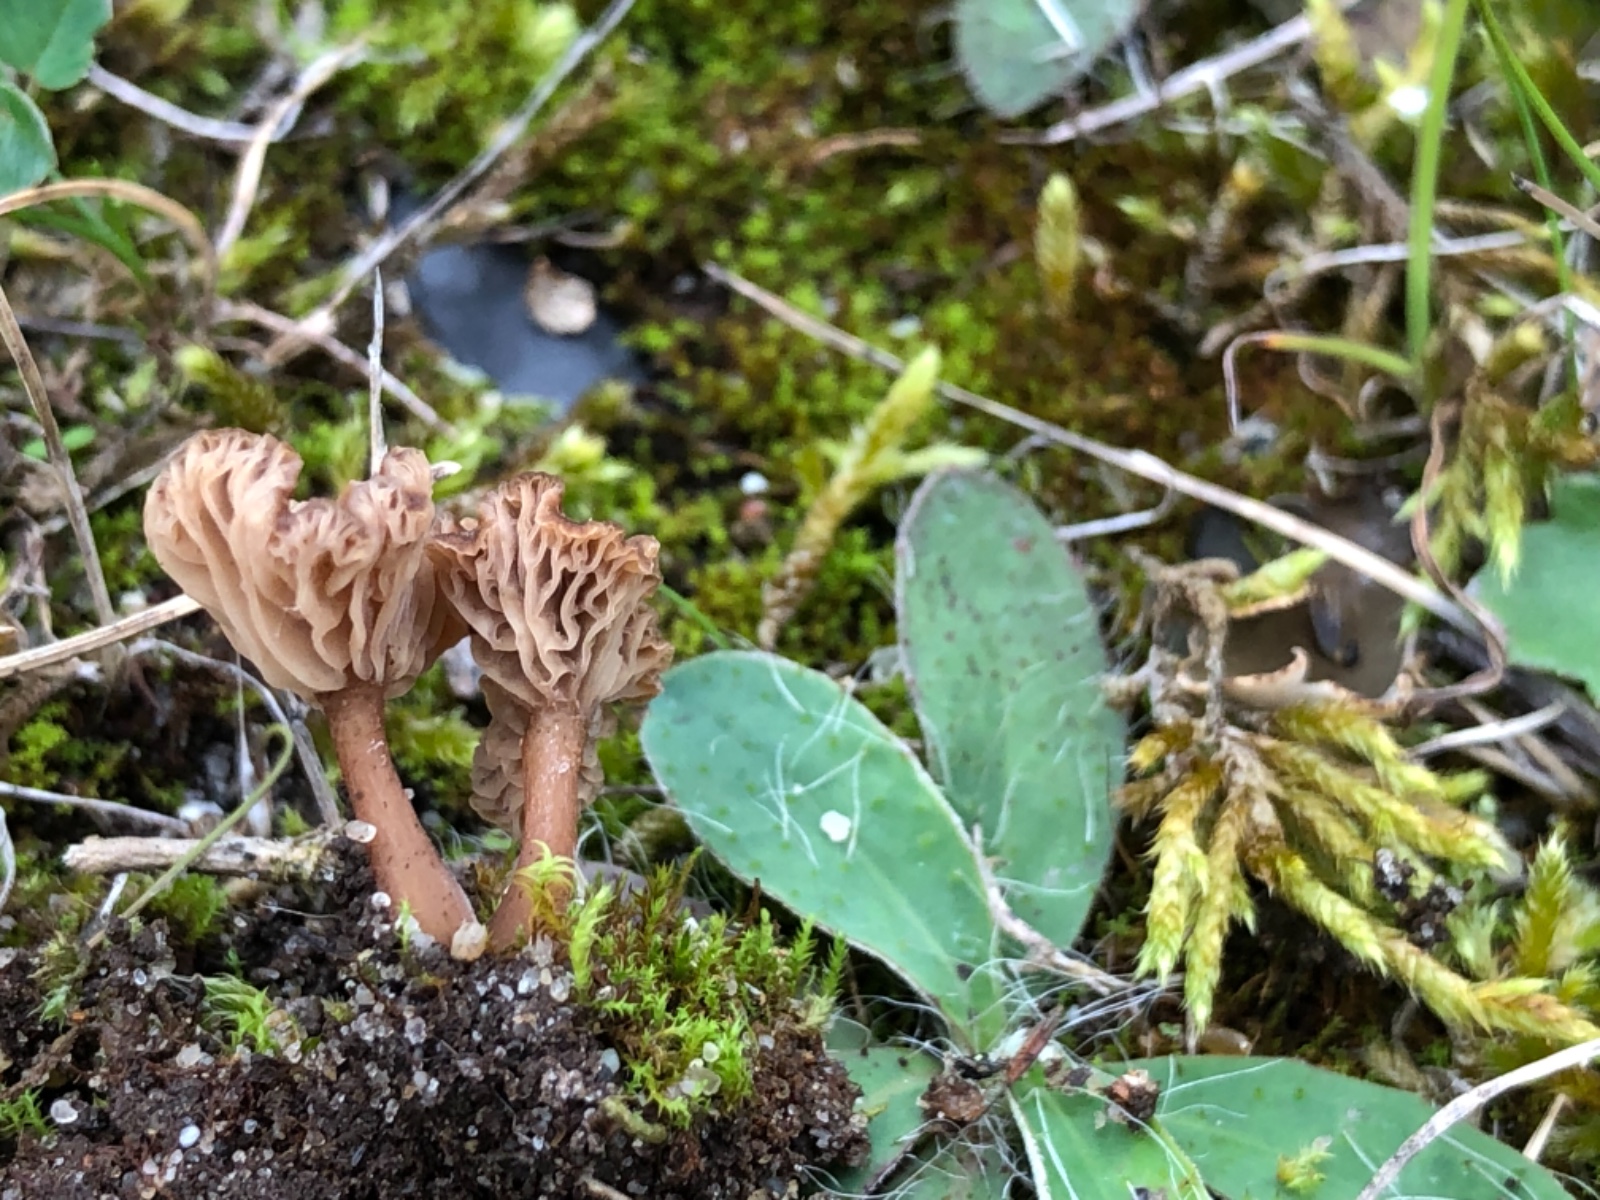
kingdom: Fungi
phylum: Basidiomycota
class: Agaricomycetes
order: Agaricales
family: Tricholomataceae
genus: Omphalina
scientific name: Omphalina pyxidata
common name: Cinnamon navel
